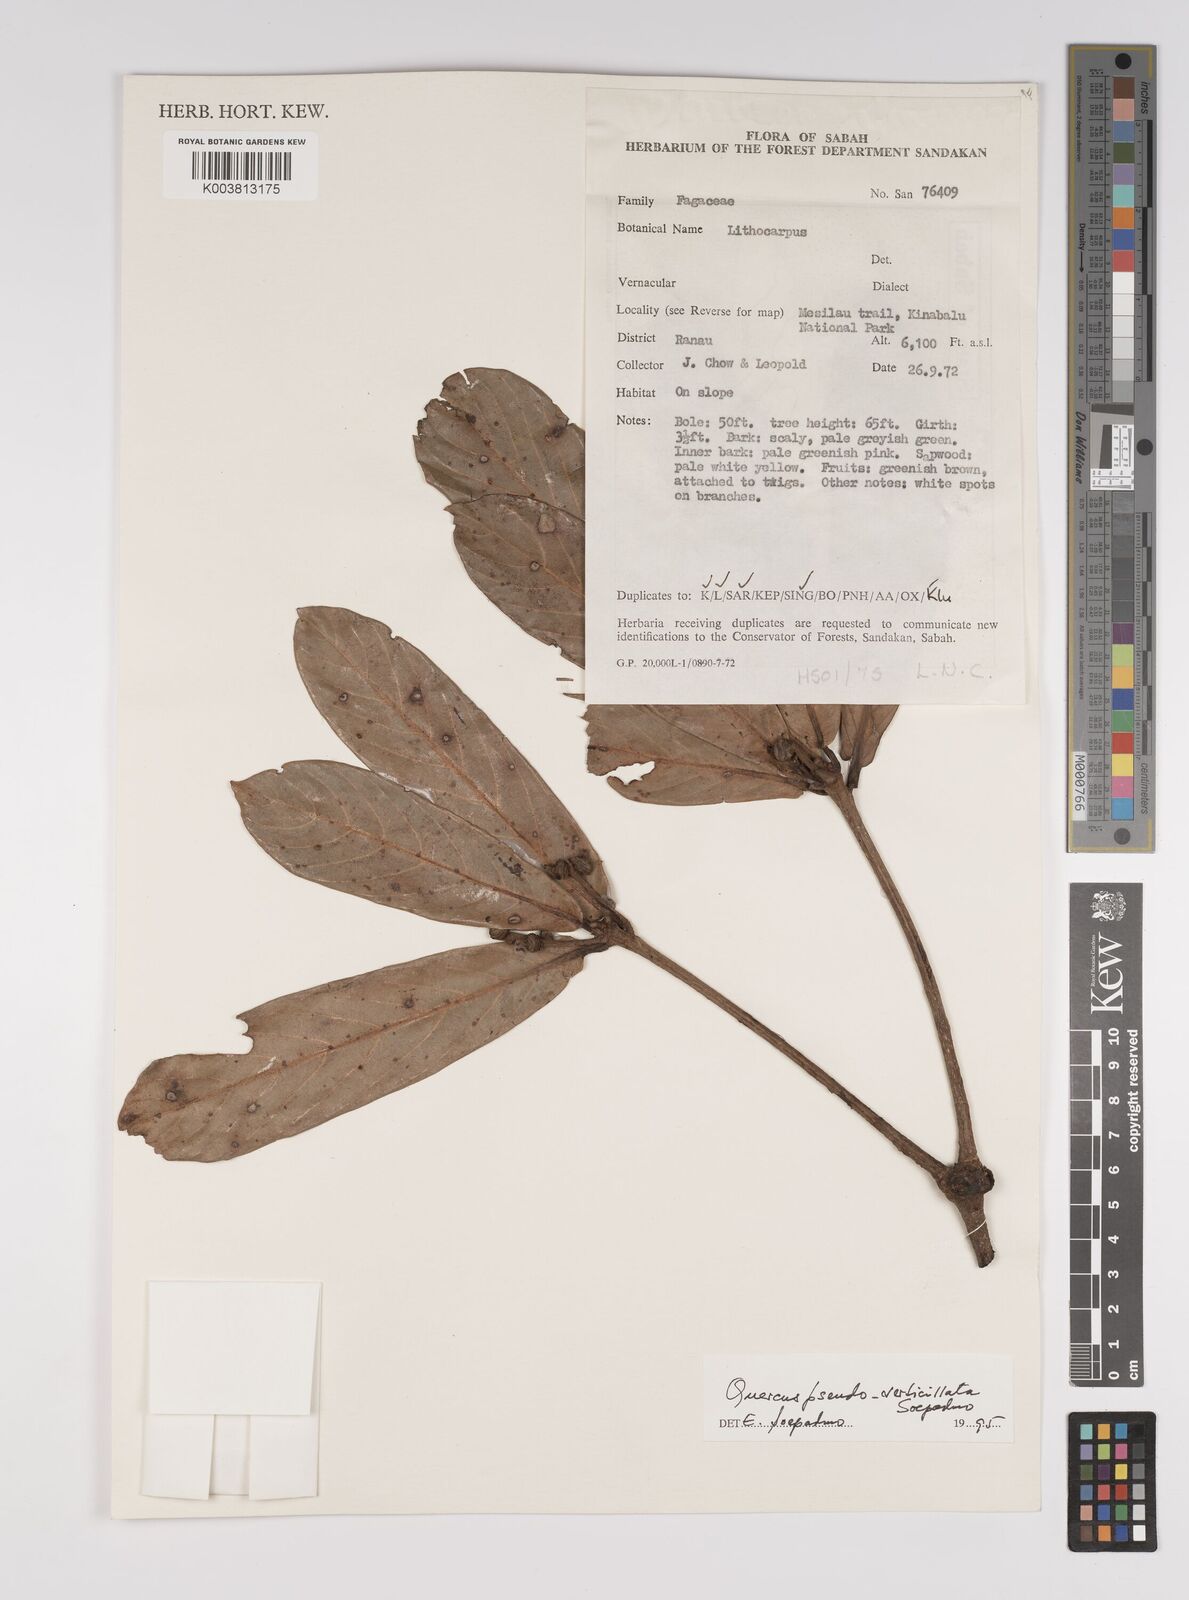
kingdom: Plantae
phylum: Tracheophyta
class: Magnoliopsida
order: Fagales
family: Fagaceae
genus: Quercus
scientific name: Quercus pseudoverticillata
